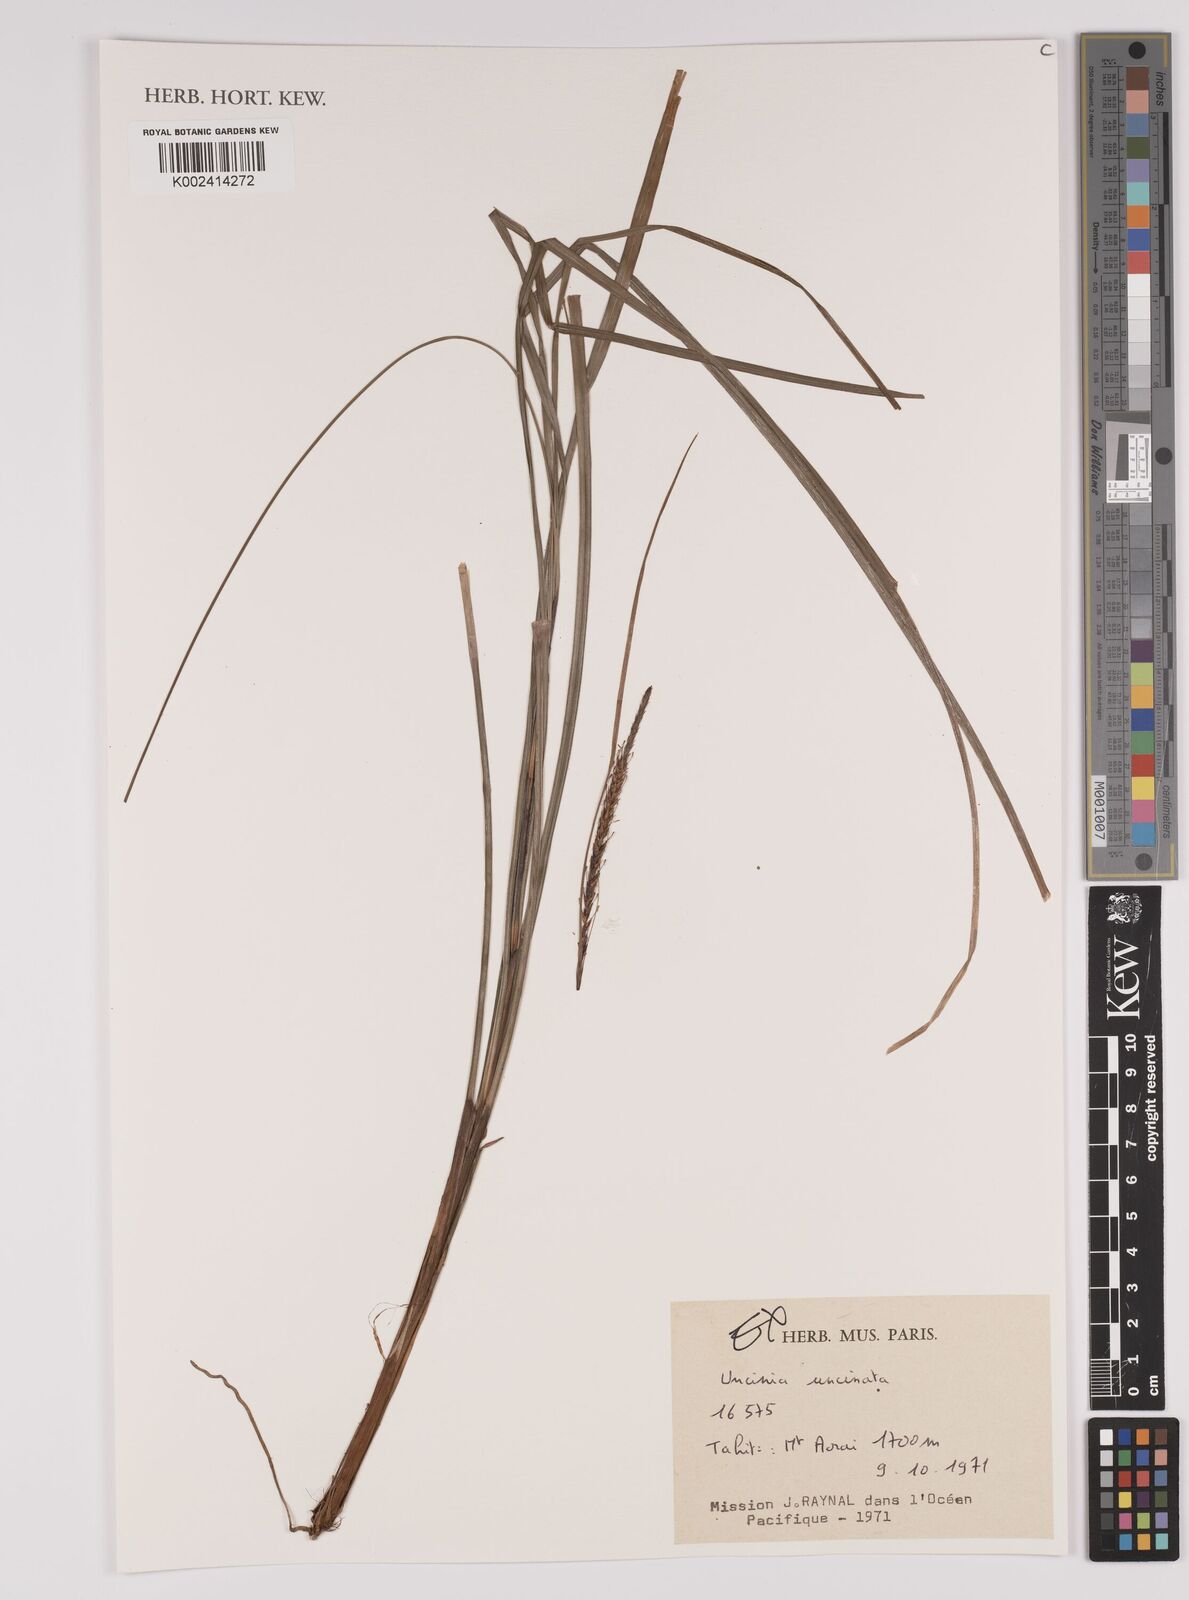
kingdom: Plantae
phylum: Tracheophyta
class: Liliopsida
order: Poales
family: Cyperaceae
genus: Carex
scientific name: Carex uncinata
